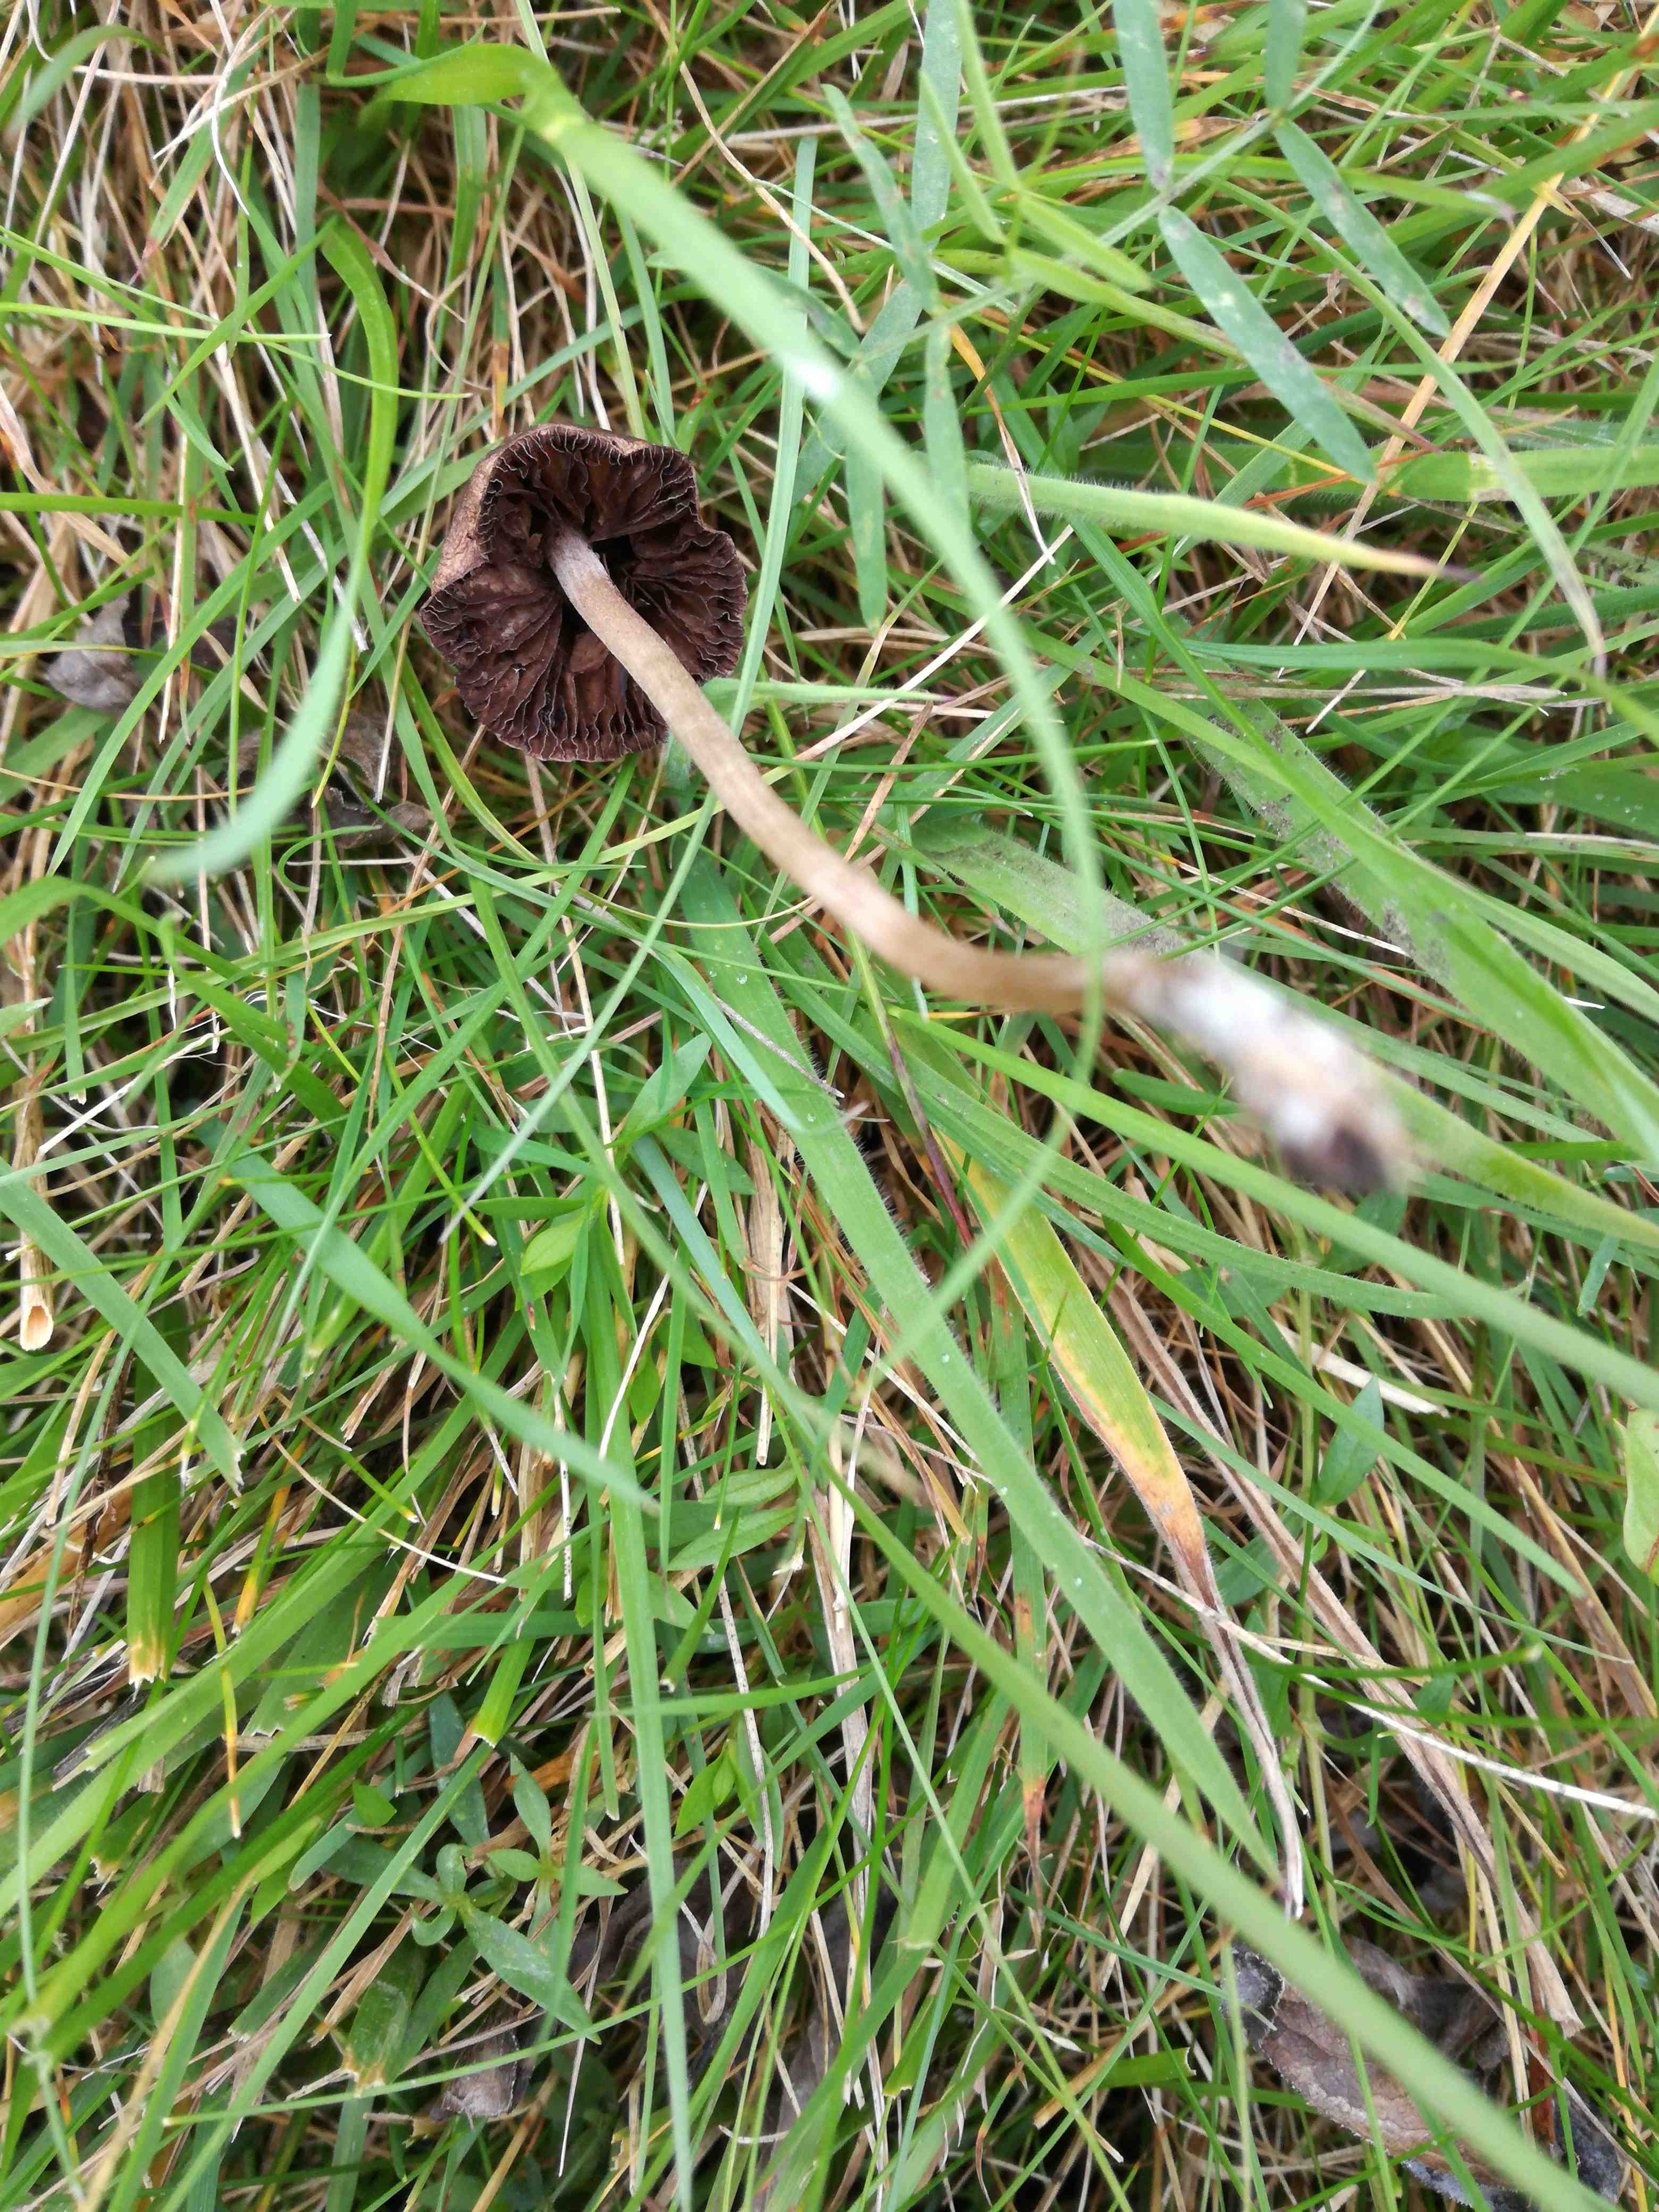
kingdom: Fungi
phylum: Basidiomycota
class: Agaricomycetes
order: Agaricales
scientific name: Agaricales
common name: champignonordenen
